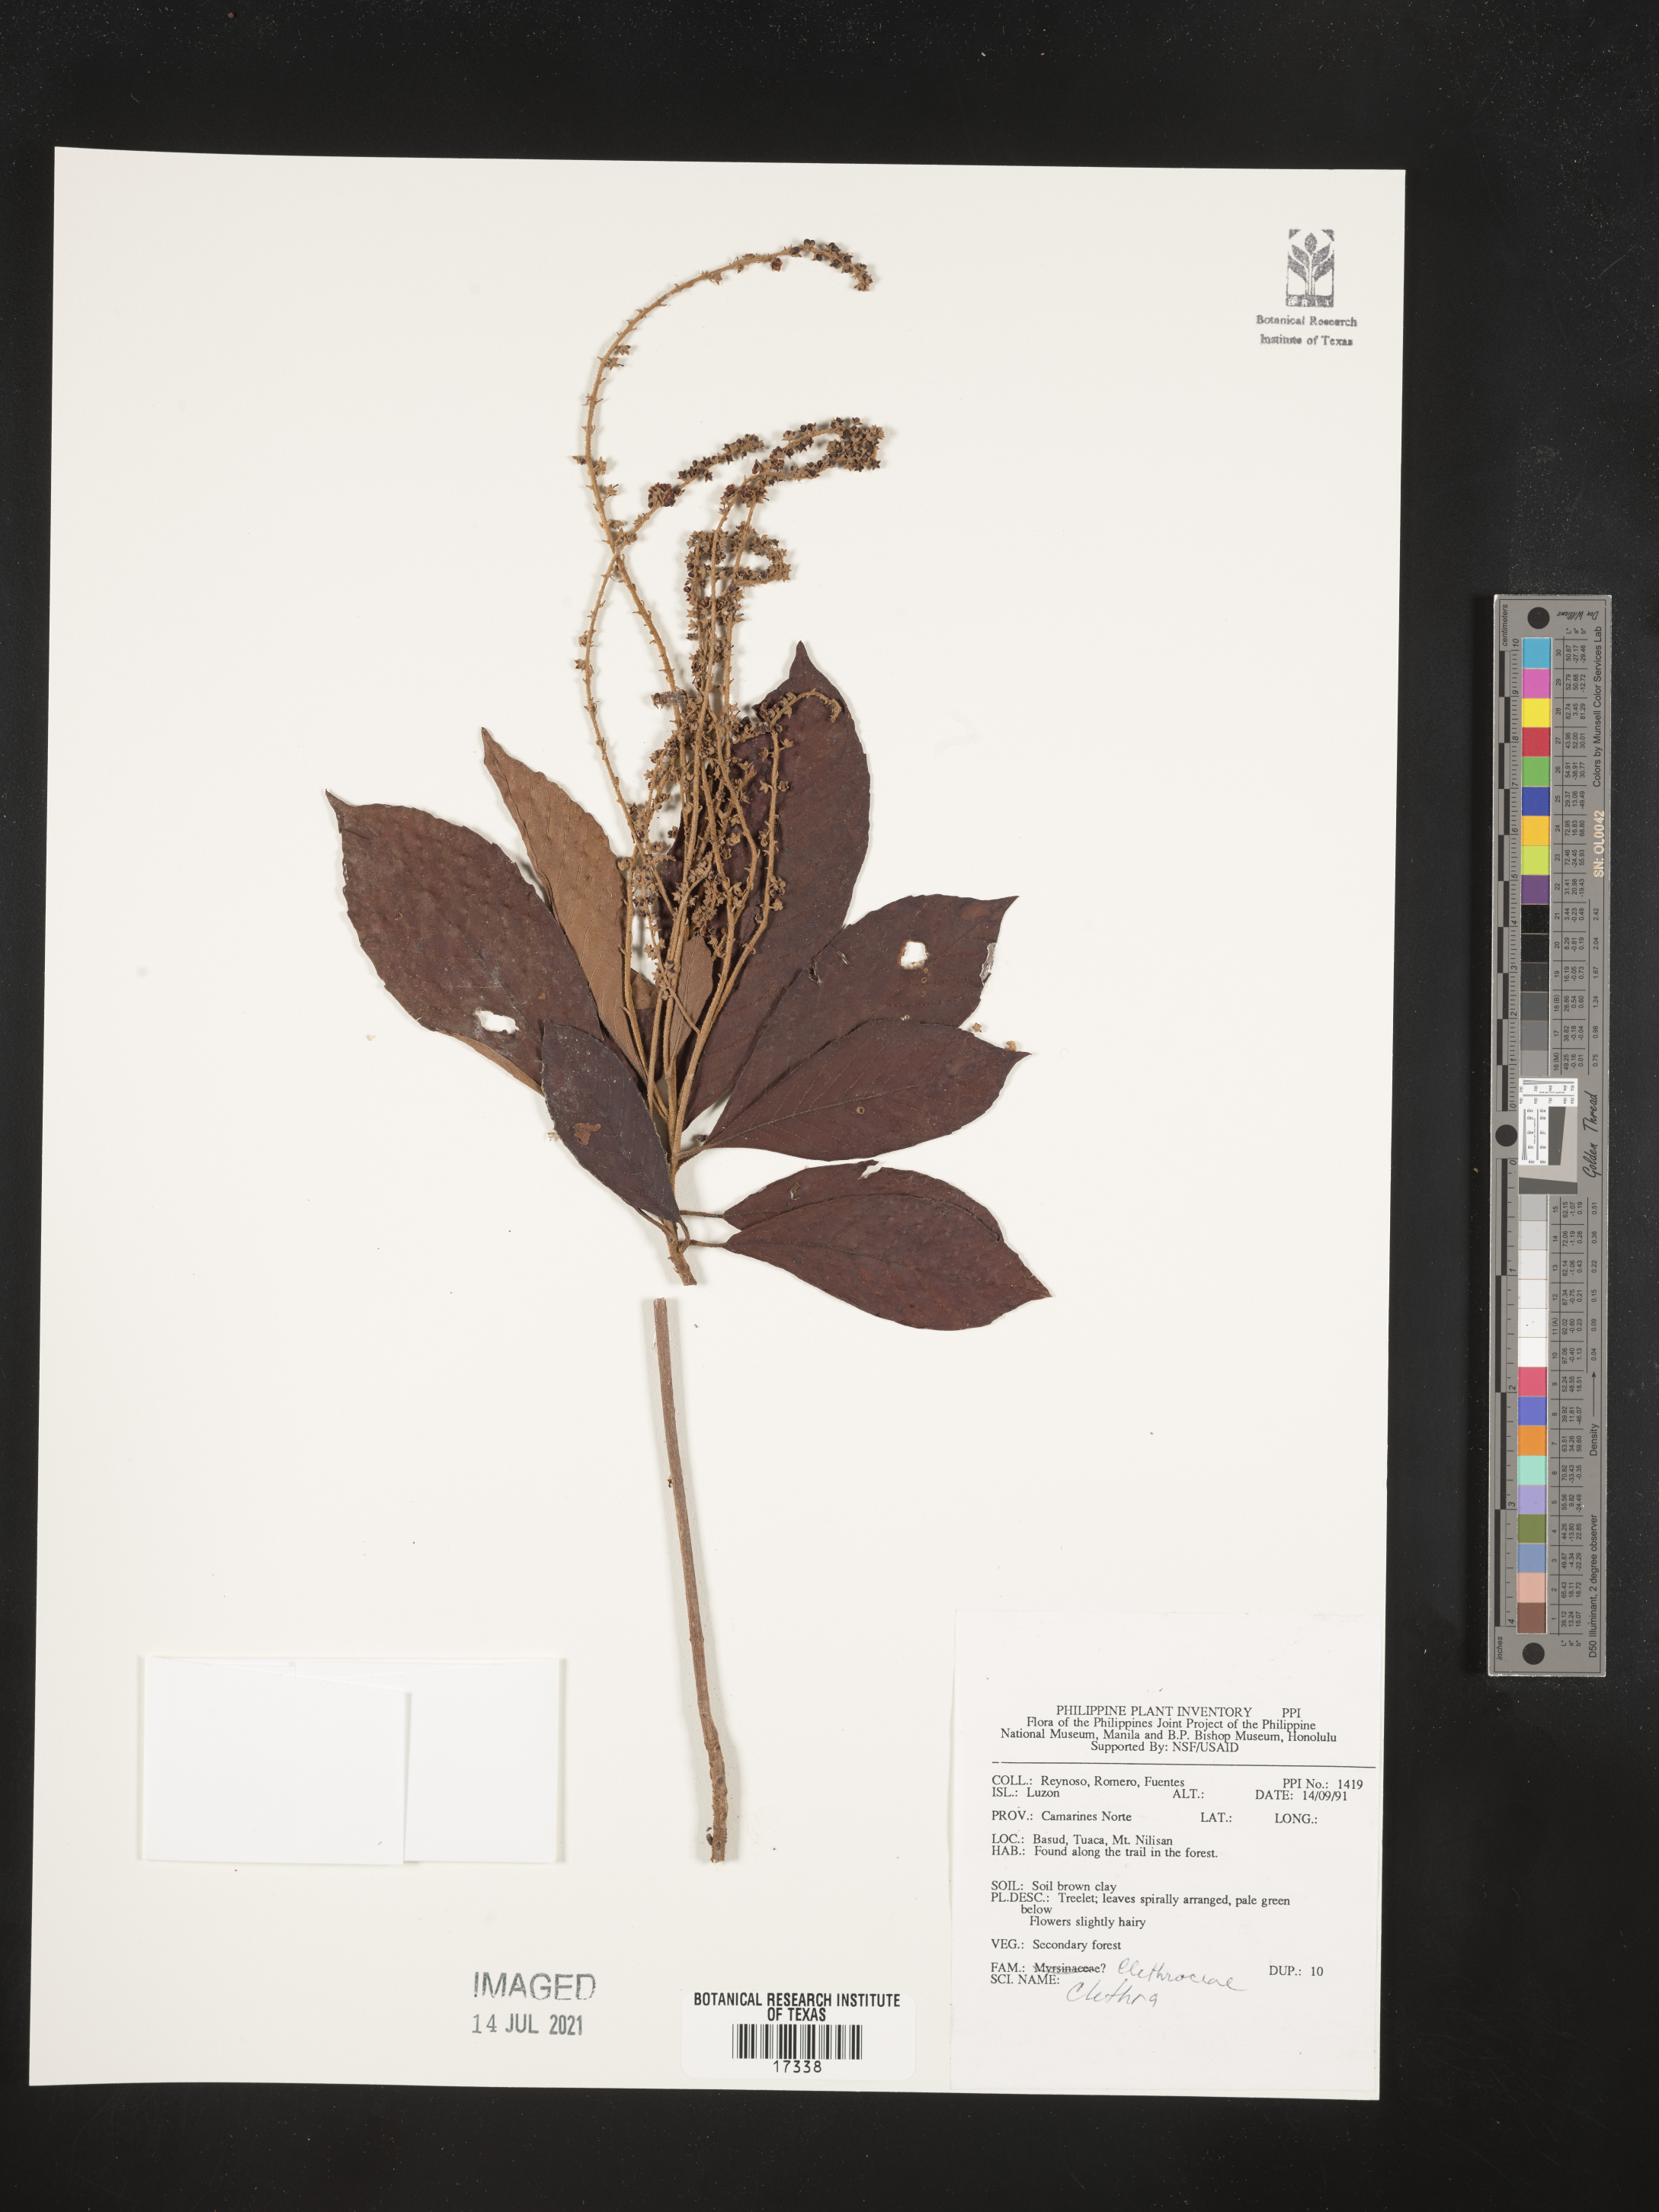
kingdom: Plantae
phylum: Tracheophyta
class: Magnoliopsida
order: Ericales
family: Clethraceae
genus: Clethra
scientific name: Clethra
